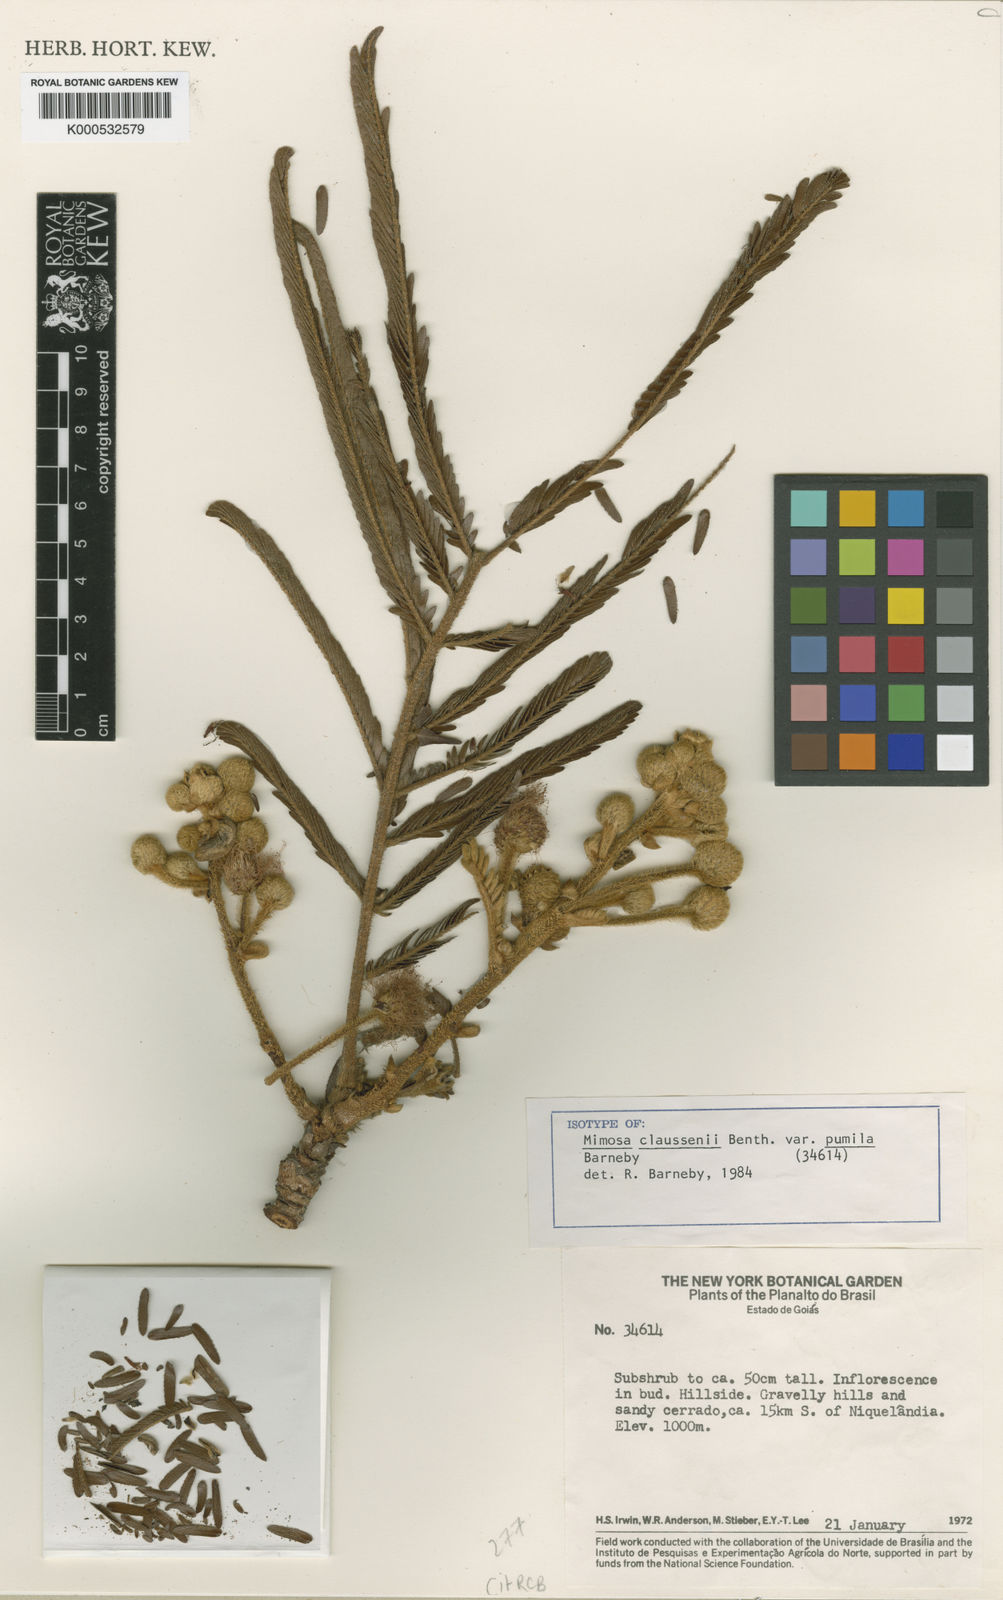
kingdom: Plantae
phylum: Tracheophyta
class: Magnoliopsida
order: Fabales
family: Fabaceae
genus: Mimosa
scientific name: Mimosa claussenii
